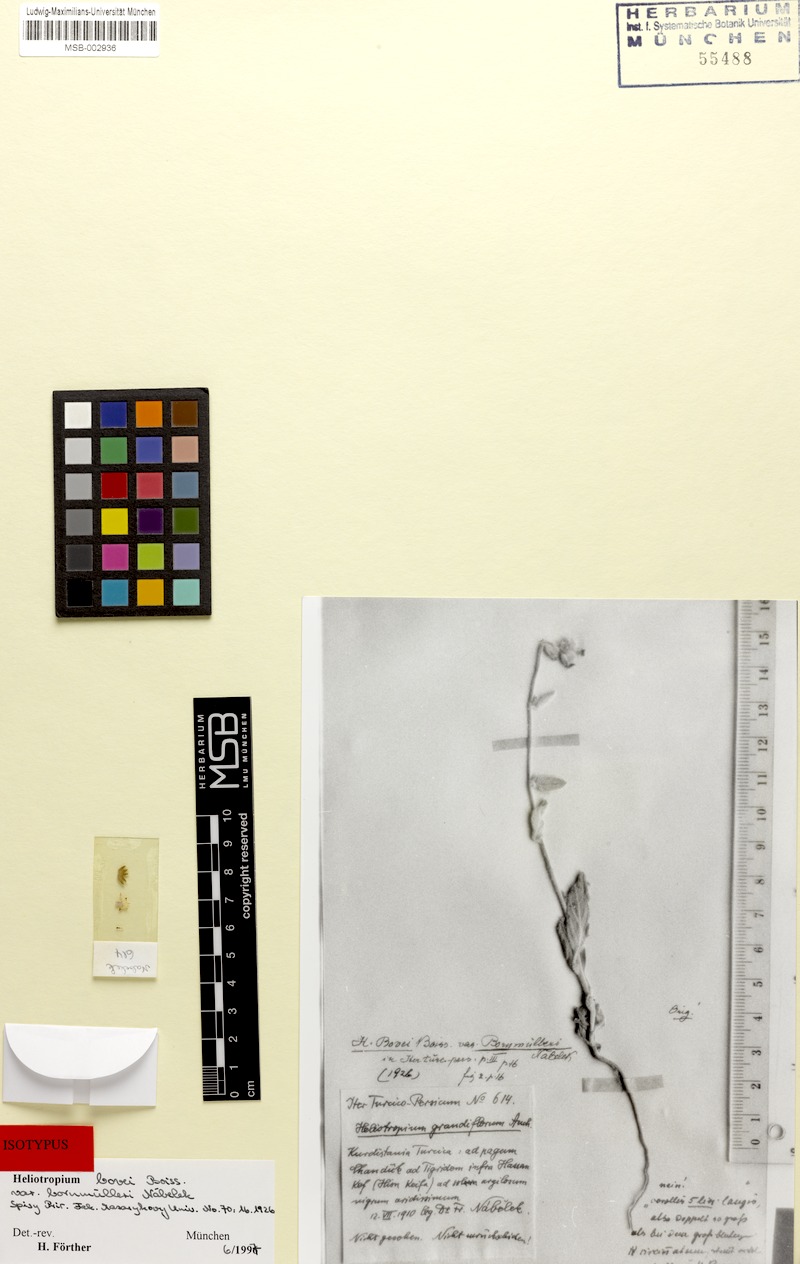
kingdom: Plantae
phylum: Tracheophyta
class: Magnoliopsida
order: Boraginales
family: Heliotropiaceae
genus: Heliotropium
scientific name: Heliotropium bovei
